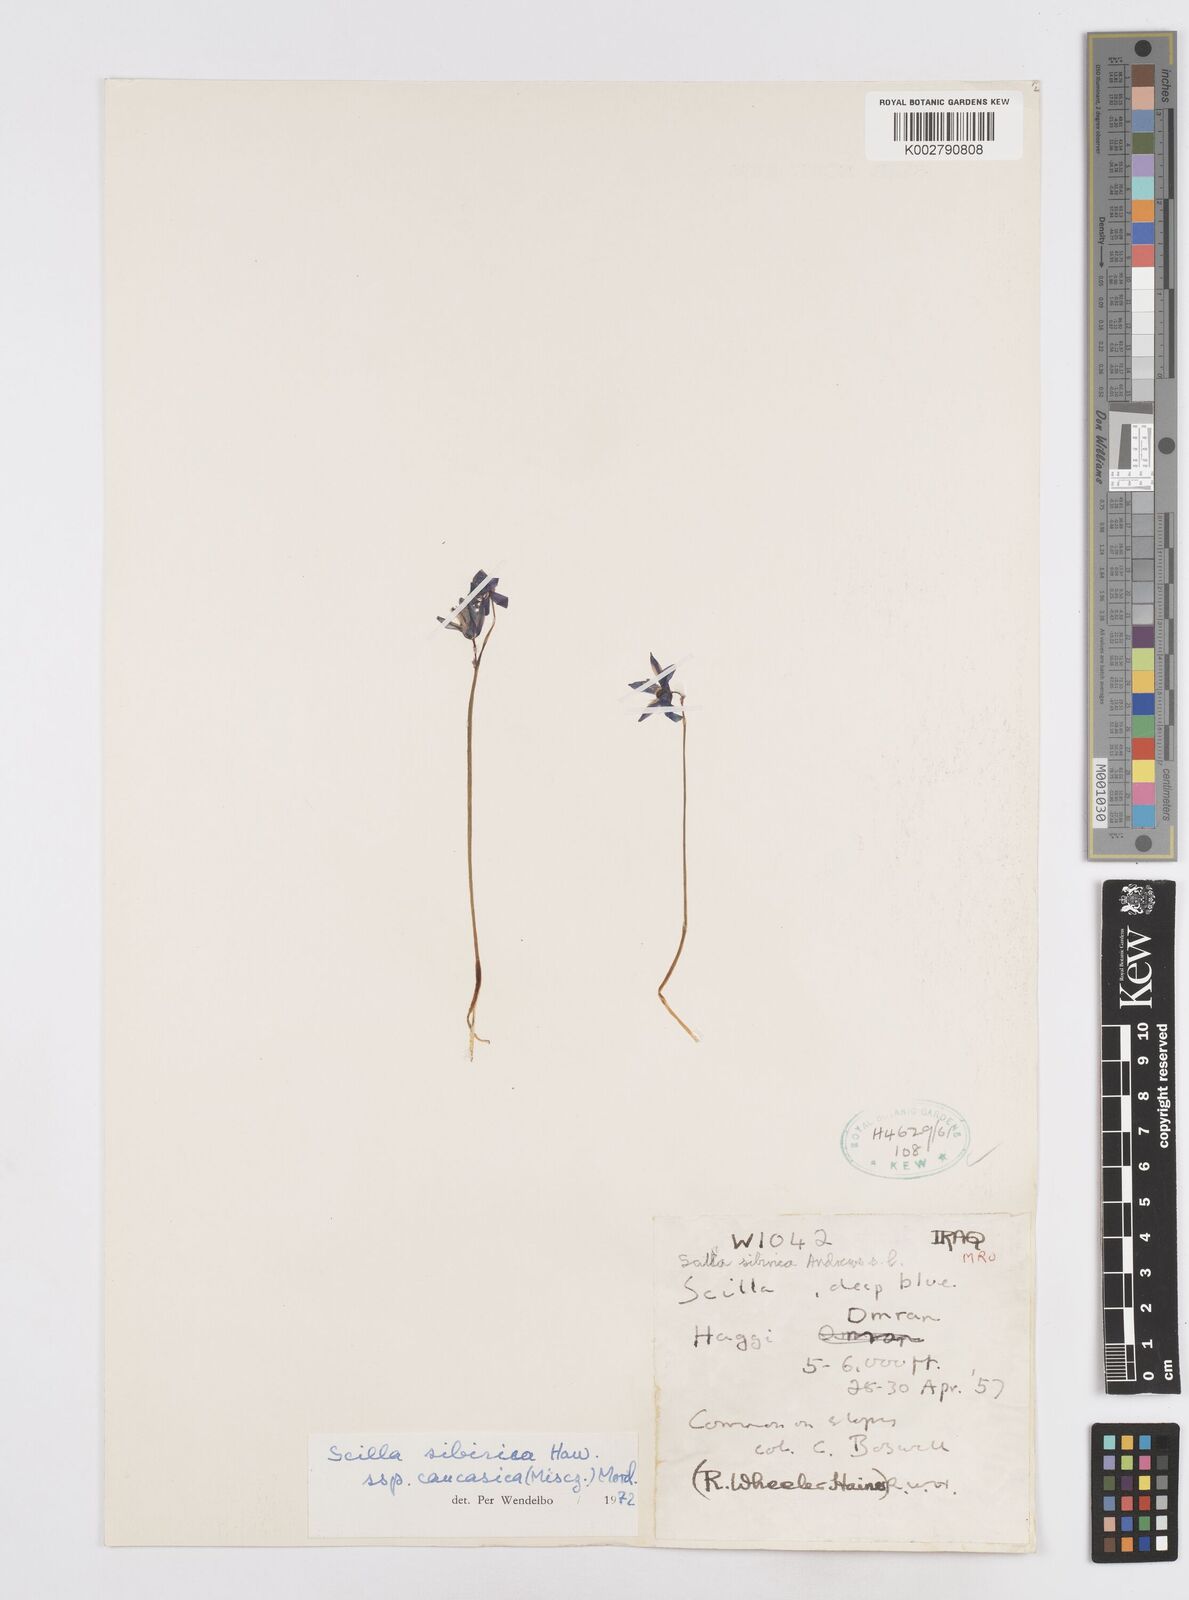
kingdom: Plantae
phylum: Tracheophyta
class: Liliopsida
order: Asparagales
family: Asparagaceae
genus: Scilla
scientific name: Scilla siberica
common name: Siberian squill
